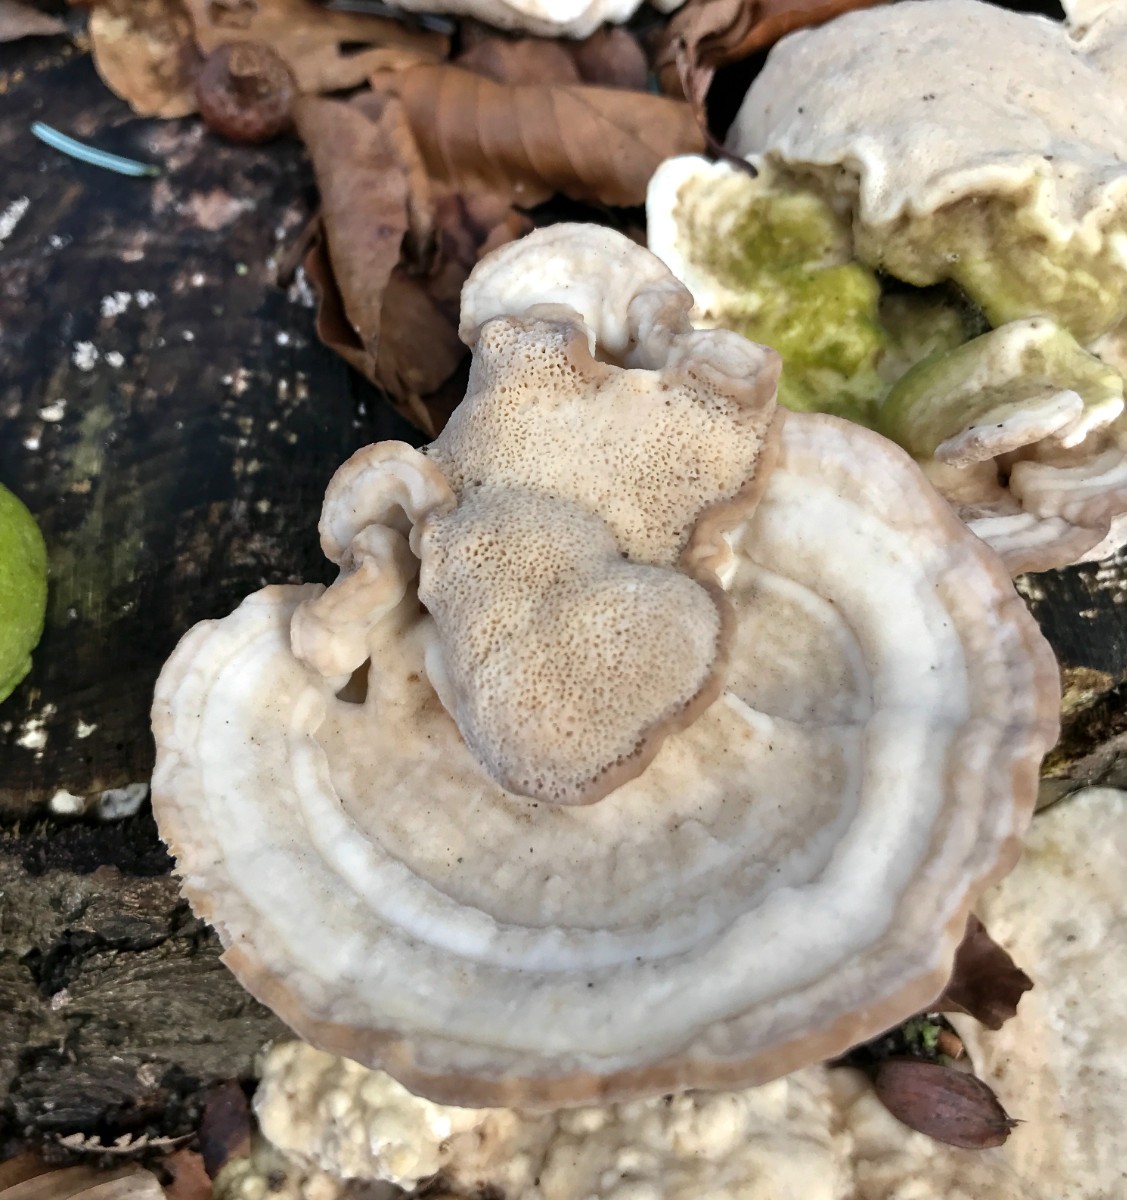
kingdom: Fungi
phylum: Basidiomycota
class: Agaricomycetes
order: Polyporales
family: Polyporaceae
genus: Trametes
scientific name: Trametes gibbosa
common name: puklet læderporesvamp
